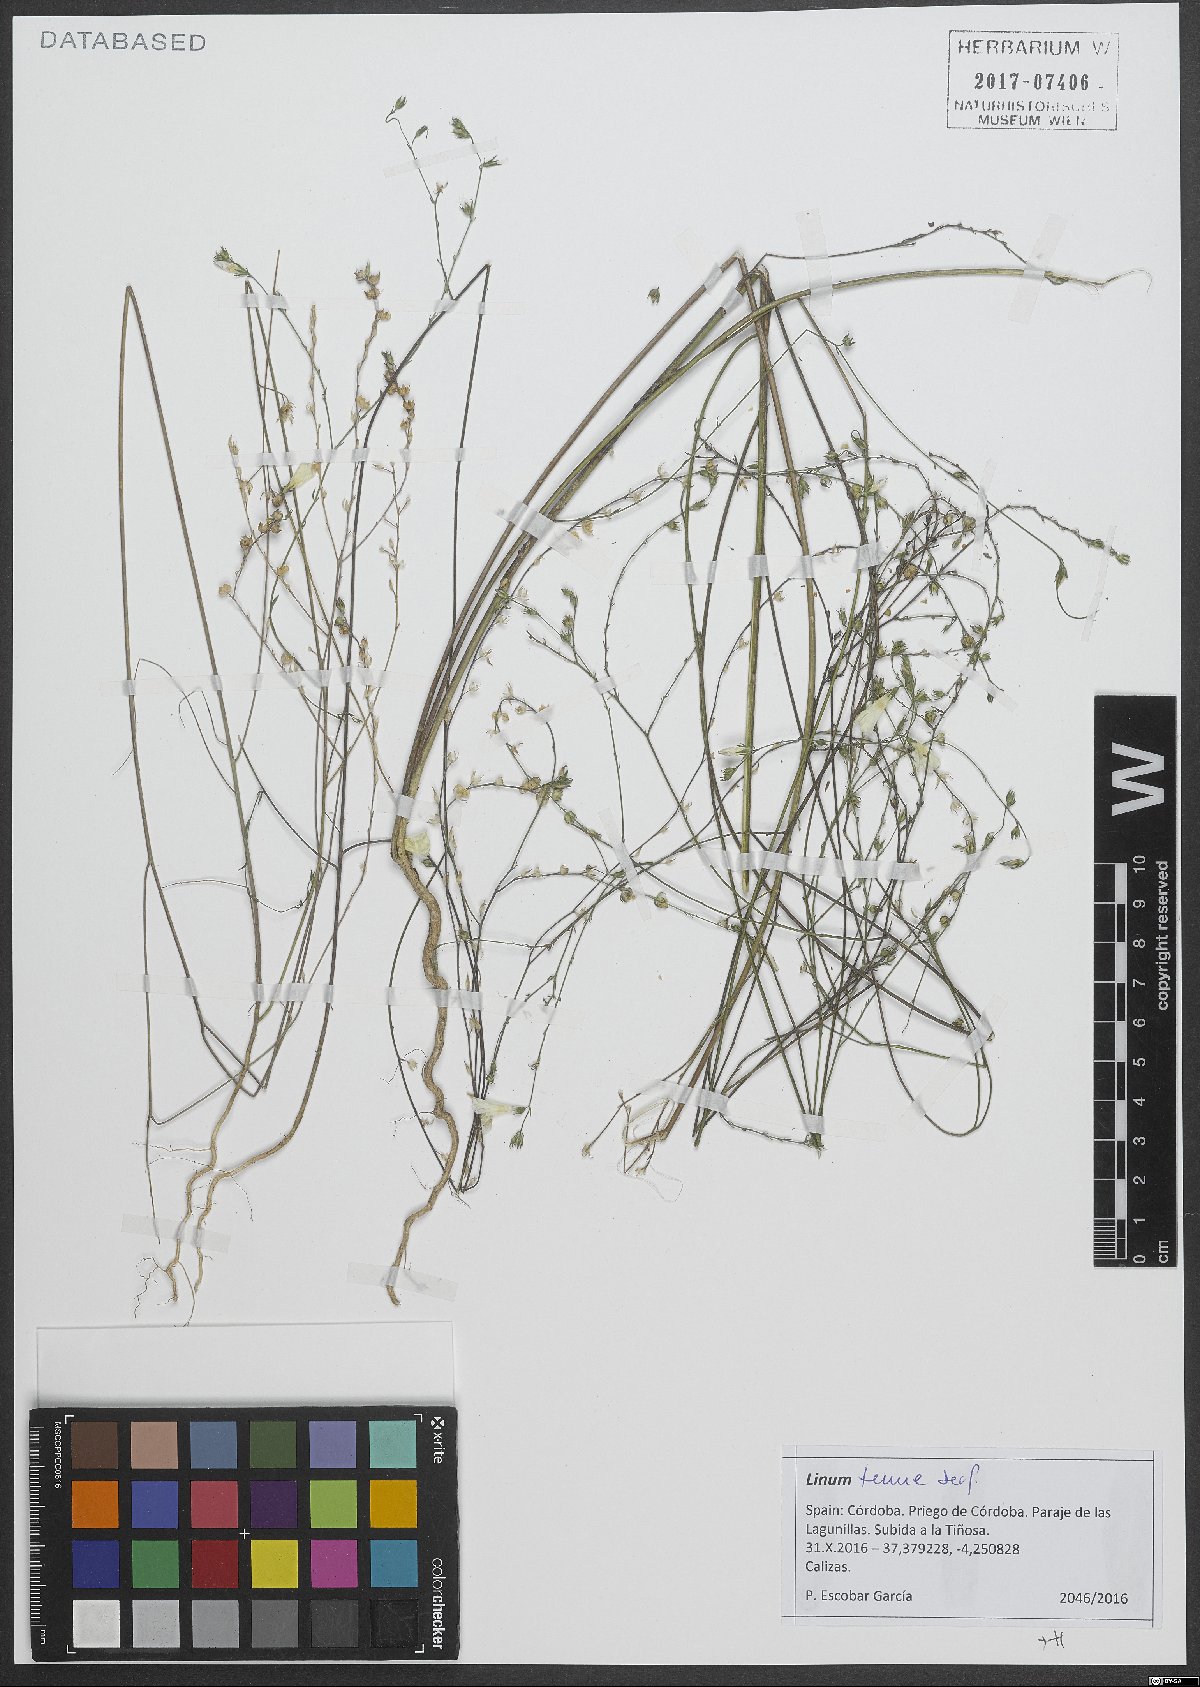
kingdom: Plantae
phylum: Tracheophyta
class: Magnoliopsida
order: Malpighiales
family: Linaceae
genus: Linum
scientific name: Linum tenue
